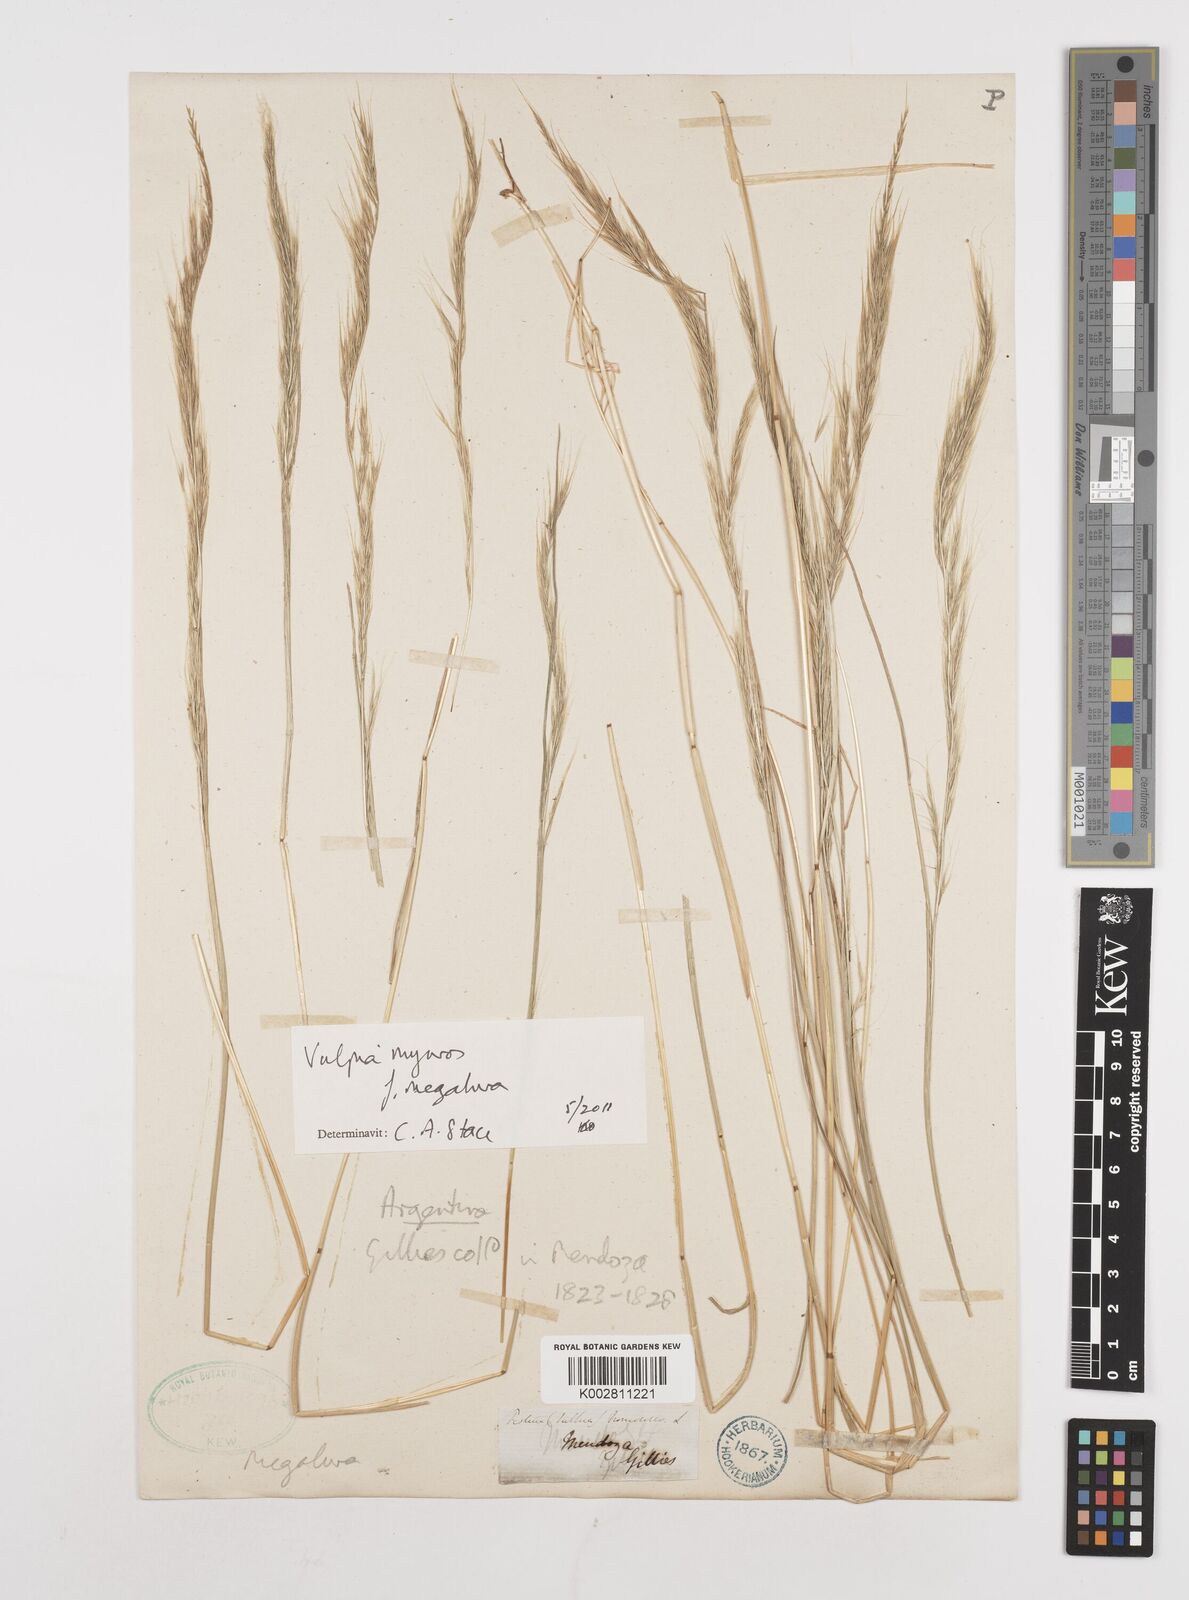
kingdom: Plantae
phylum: Tracheophyta
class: Liliopsida
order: Poales
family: Poaceae
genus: Festuca
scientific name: Festuca myuros
